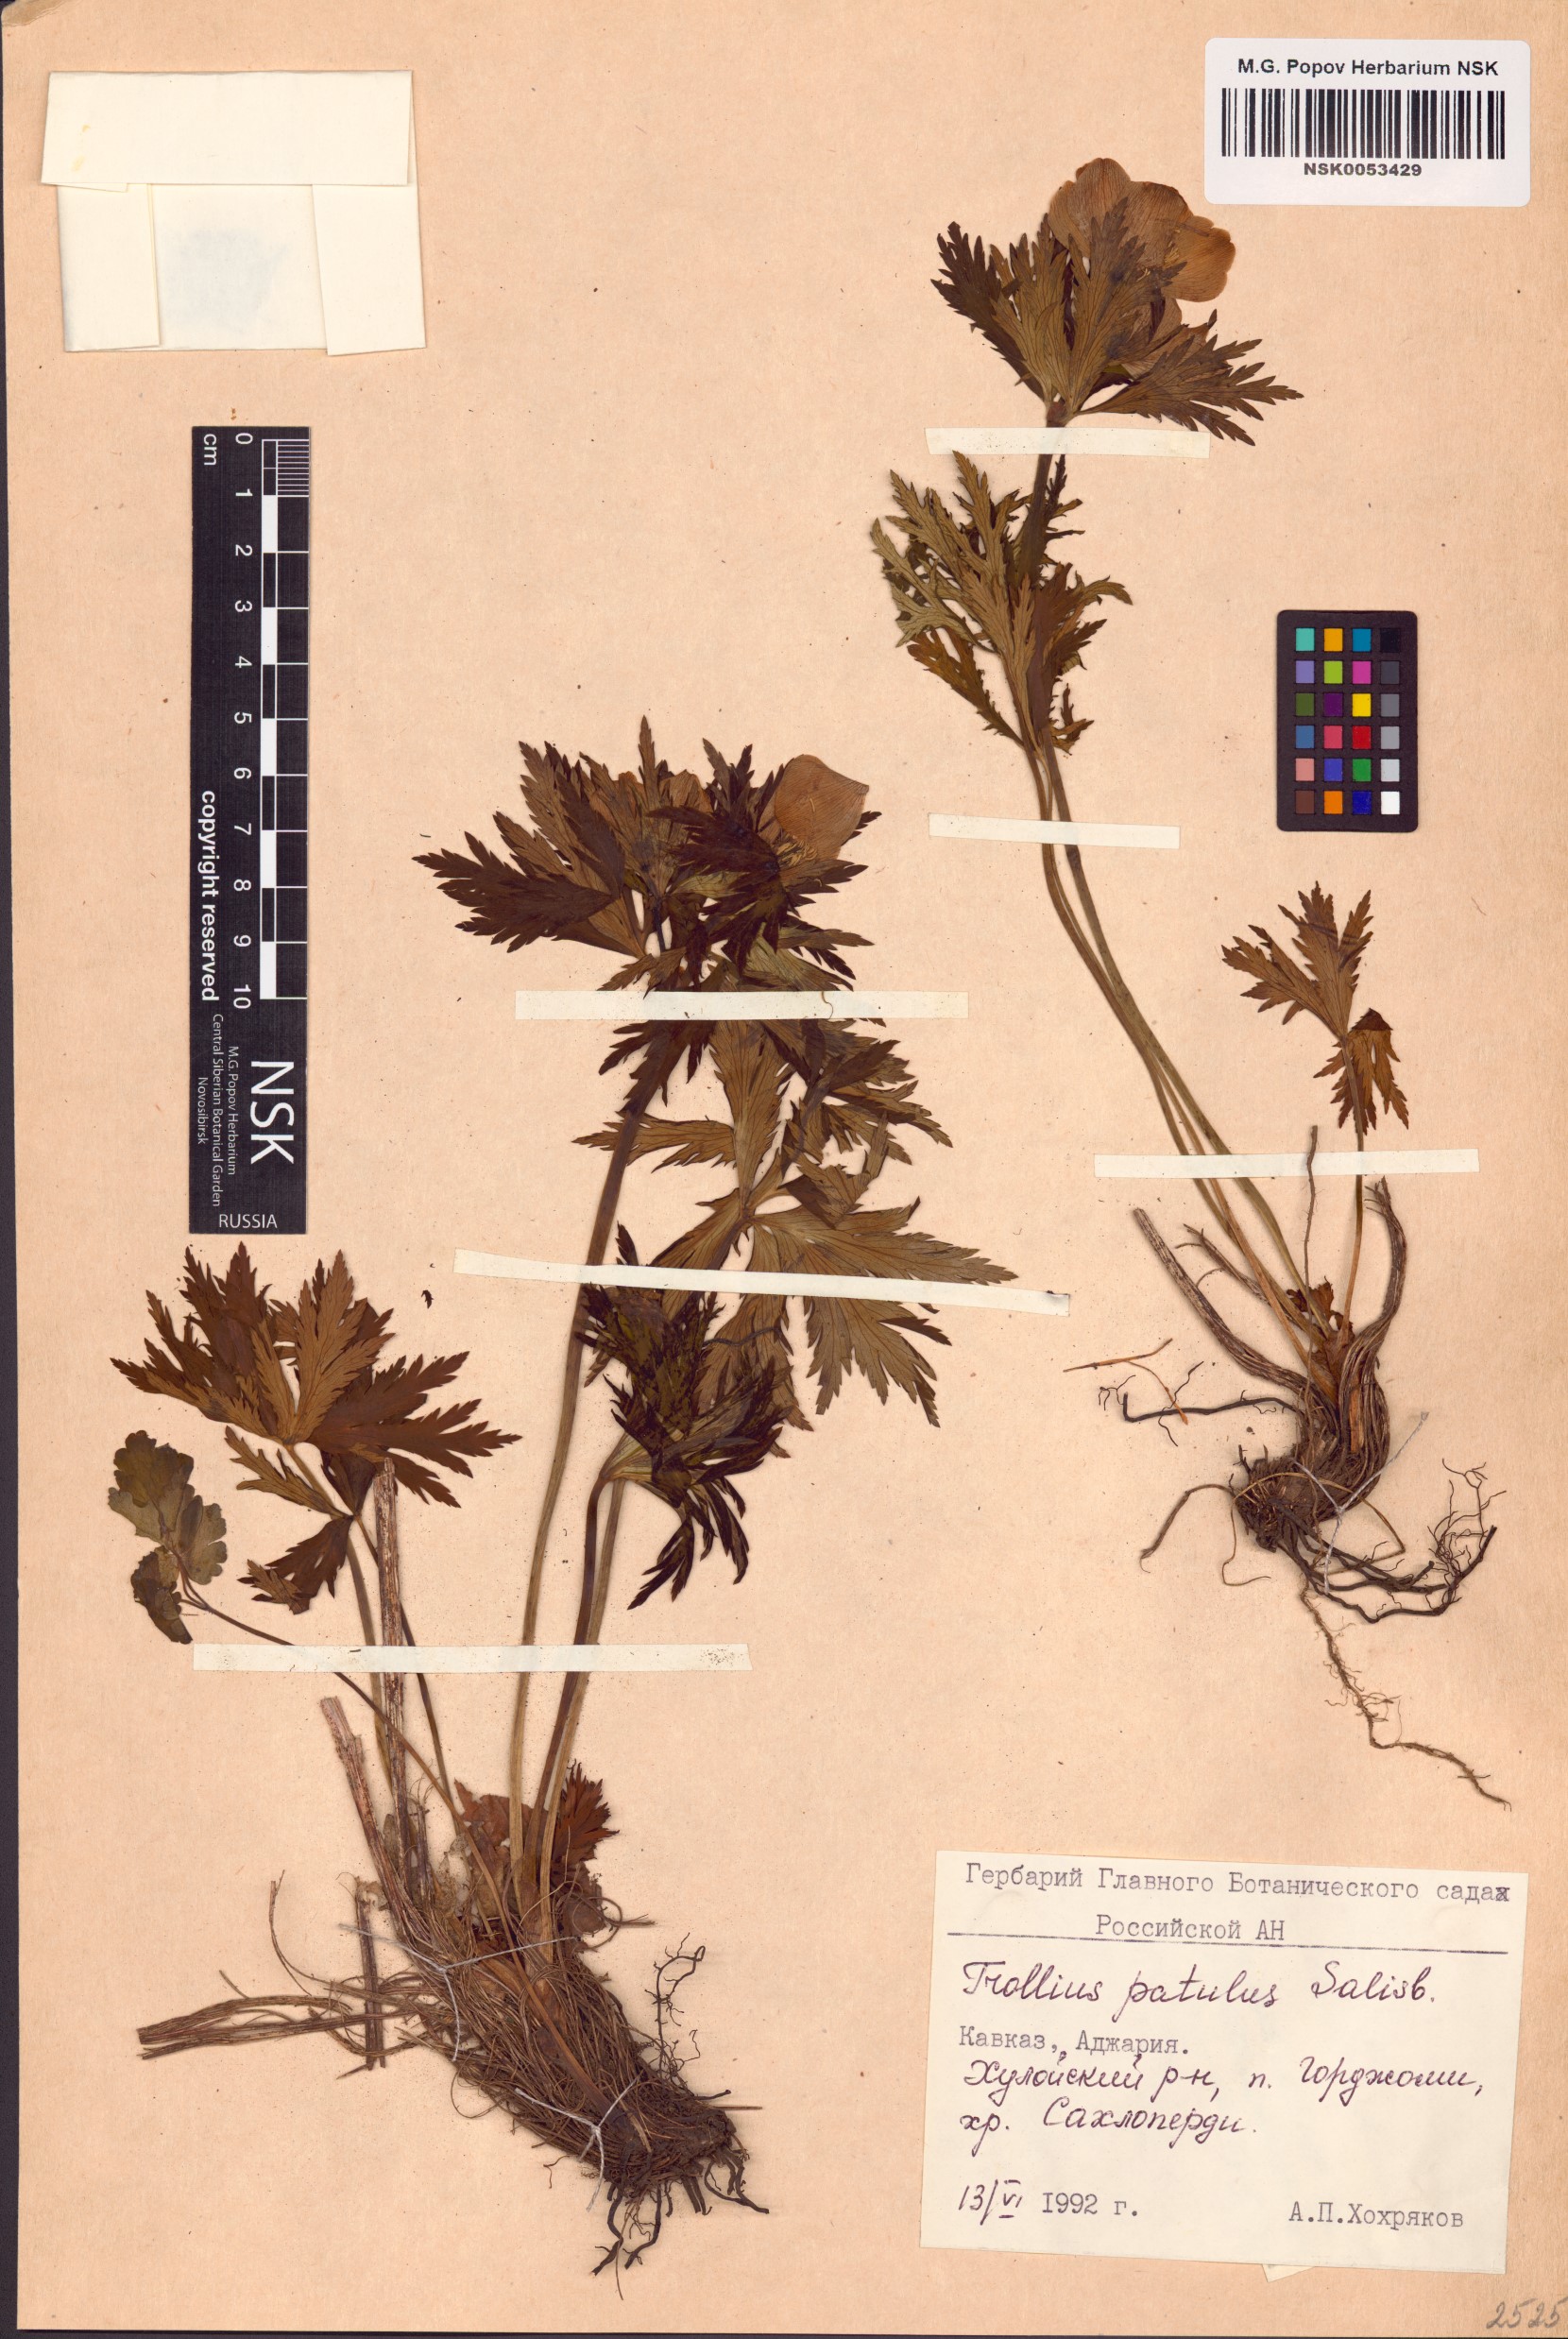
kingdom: Plantae
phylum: Tracheophyta
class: Magnoliopsida
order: Ranunculales
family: Ranunculaceae
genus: Trollius
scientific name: Trollius ranunculinus
